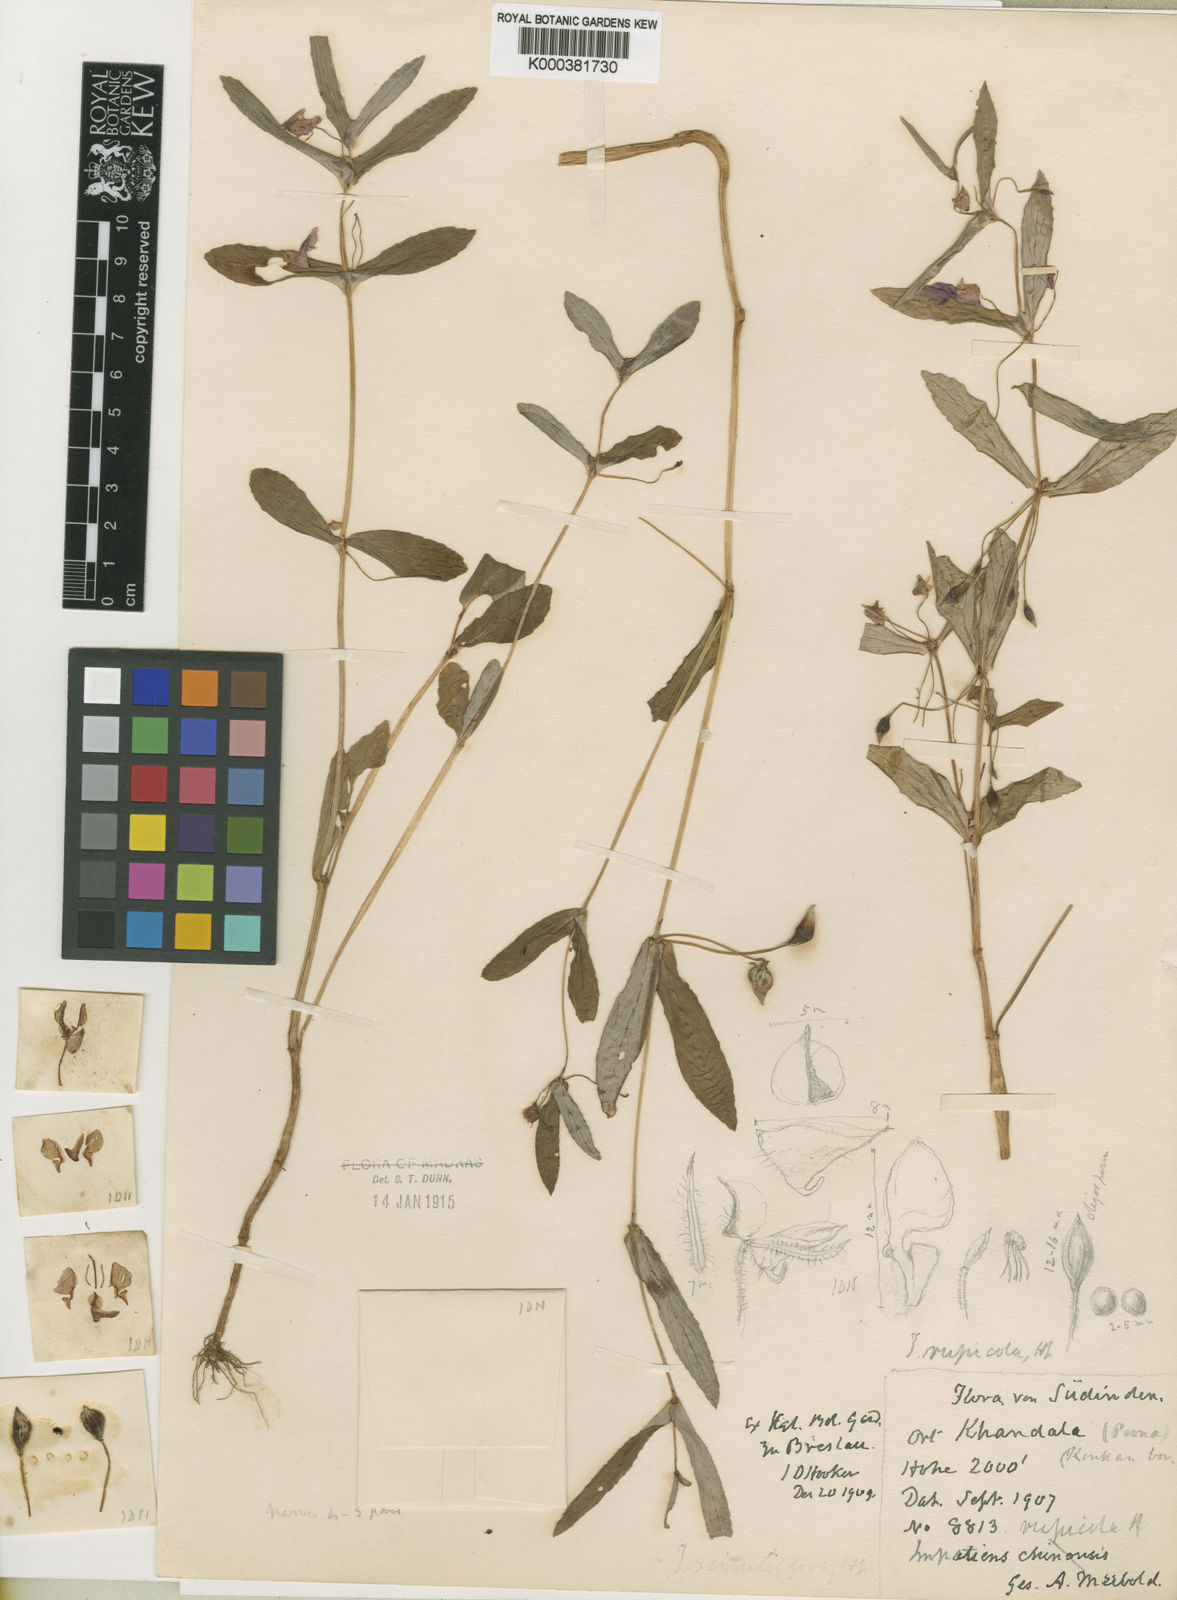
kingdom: Plantae
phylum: Tracheophyta
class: Magnoliopsida
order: Ericales
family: Balsaminaceae
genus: Impatiens
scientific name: Impatiens chinensis
